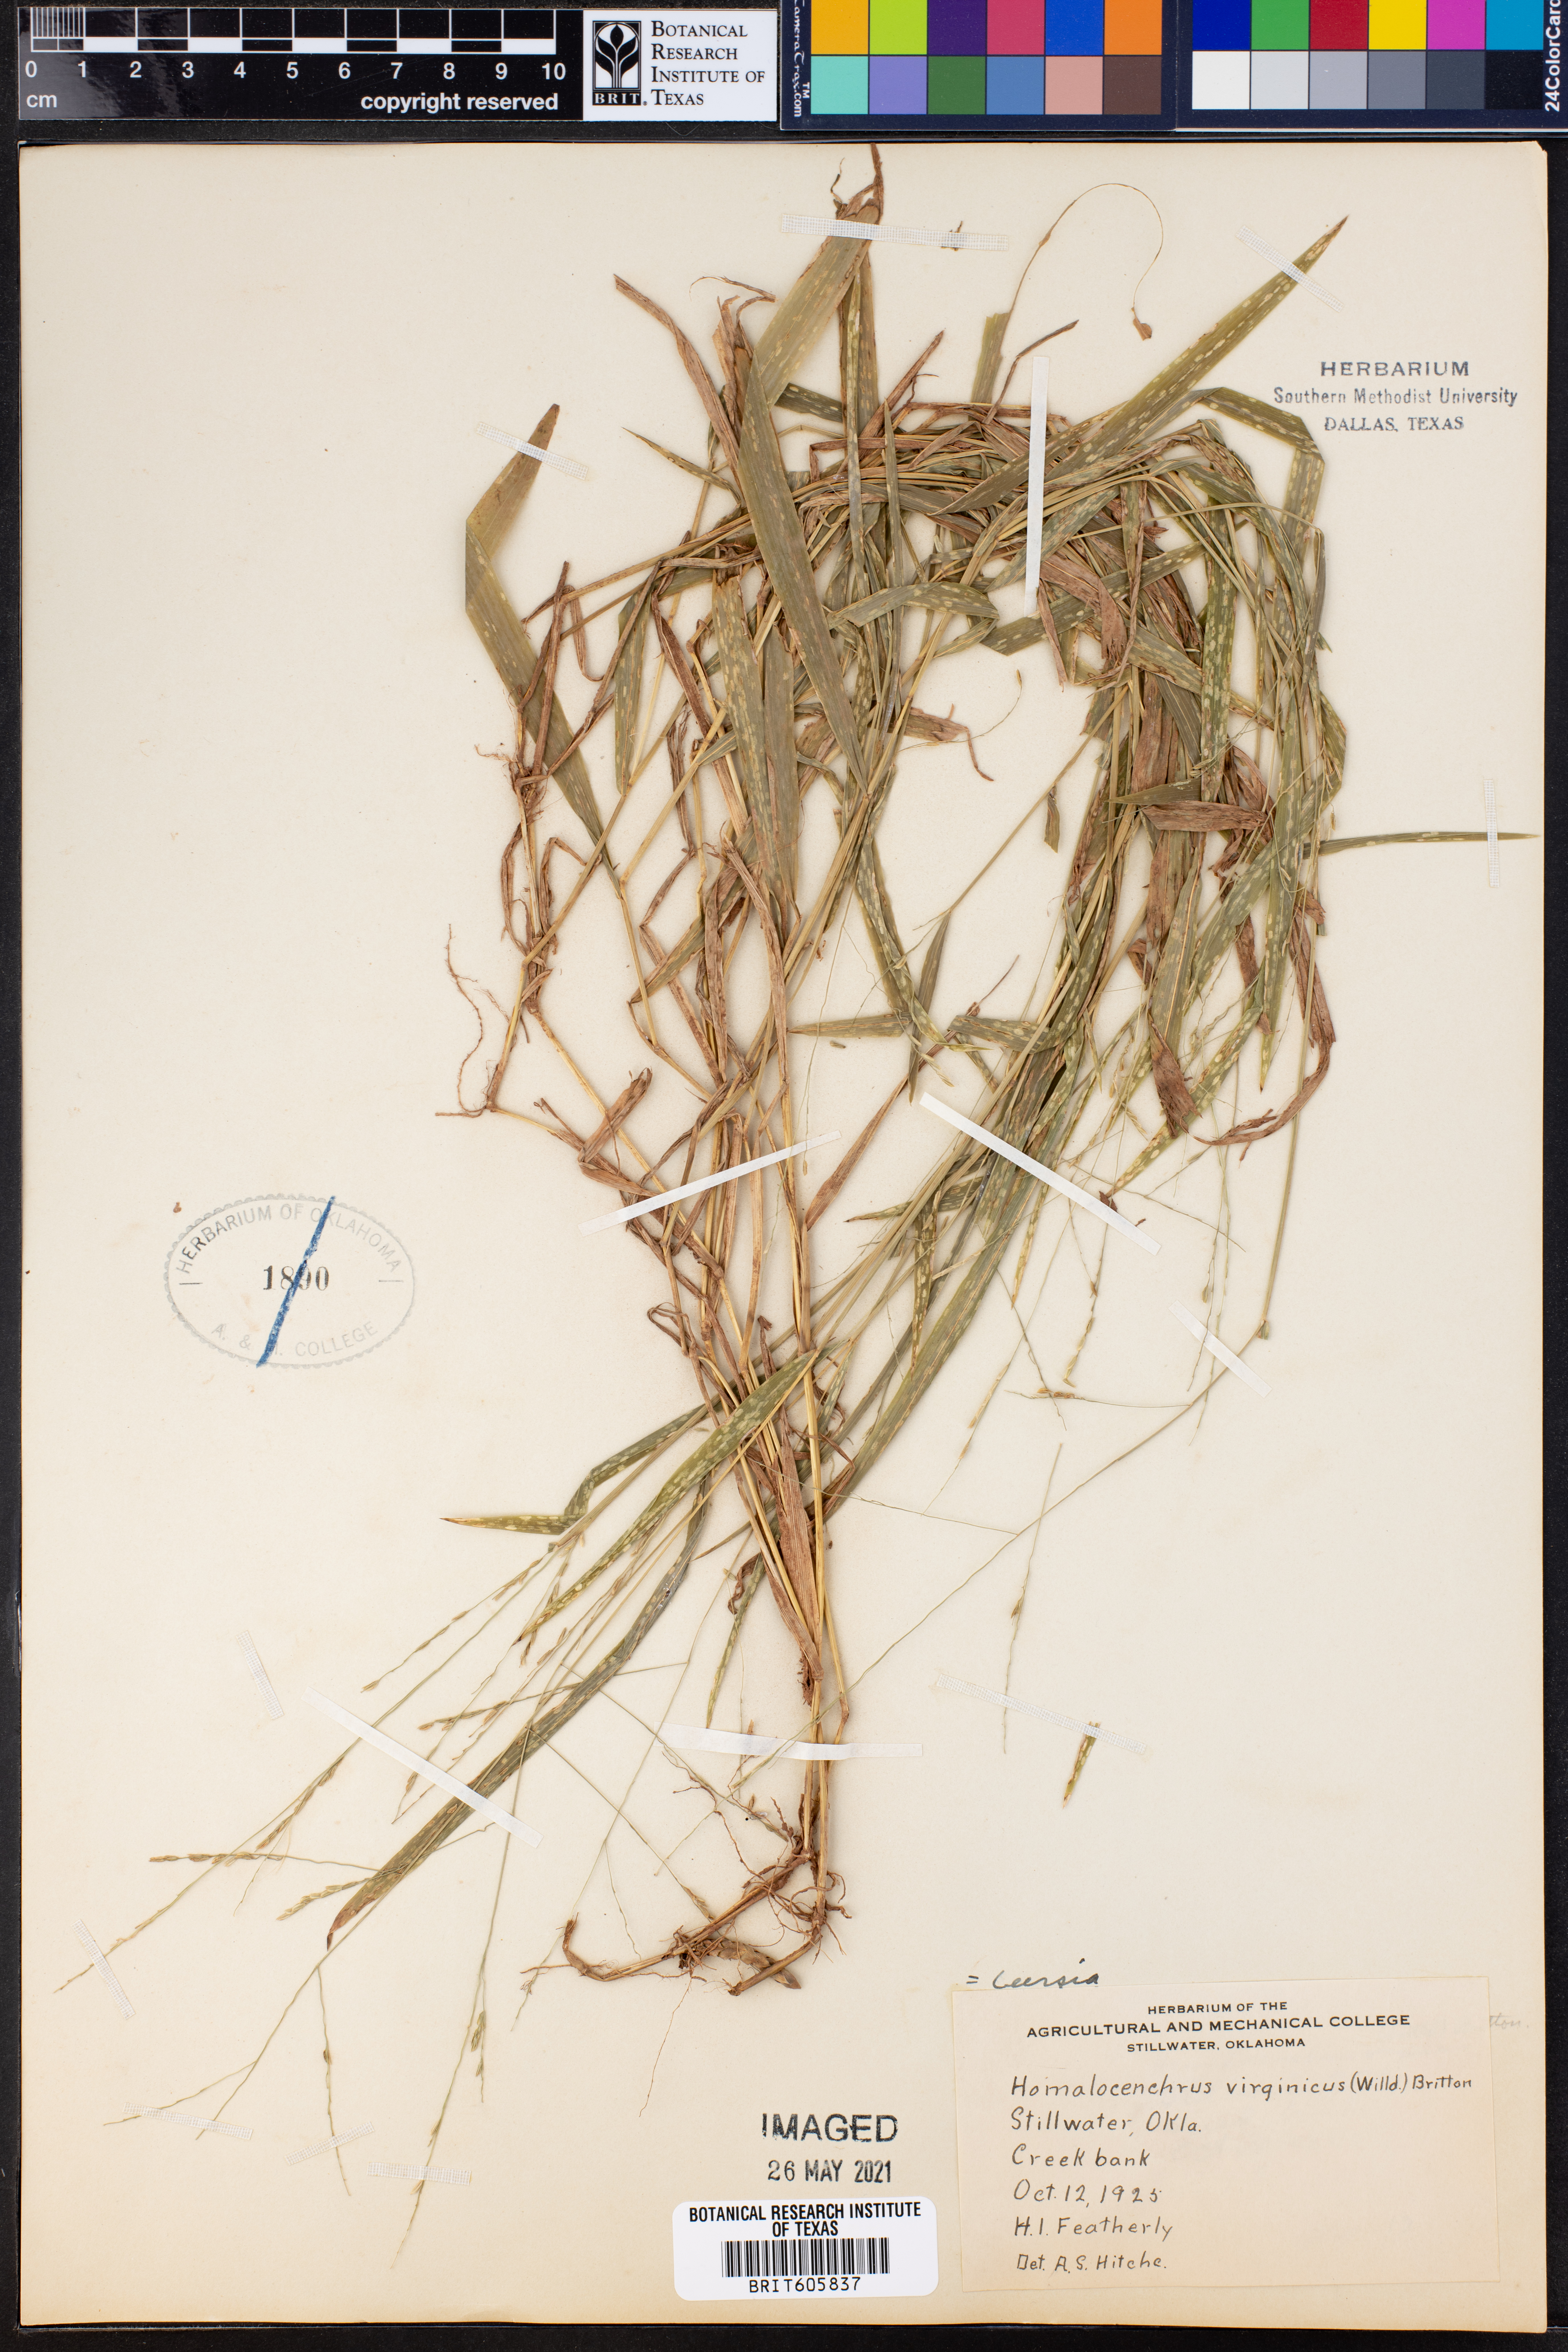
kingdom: Plantae
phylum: Tracheophyta
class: Liliopsida
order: Poales
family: Poaceae
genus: Leersia
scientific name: Leersia virginica
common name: White cutgrass
